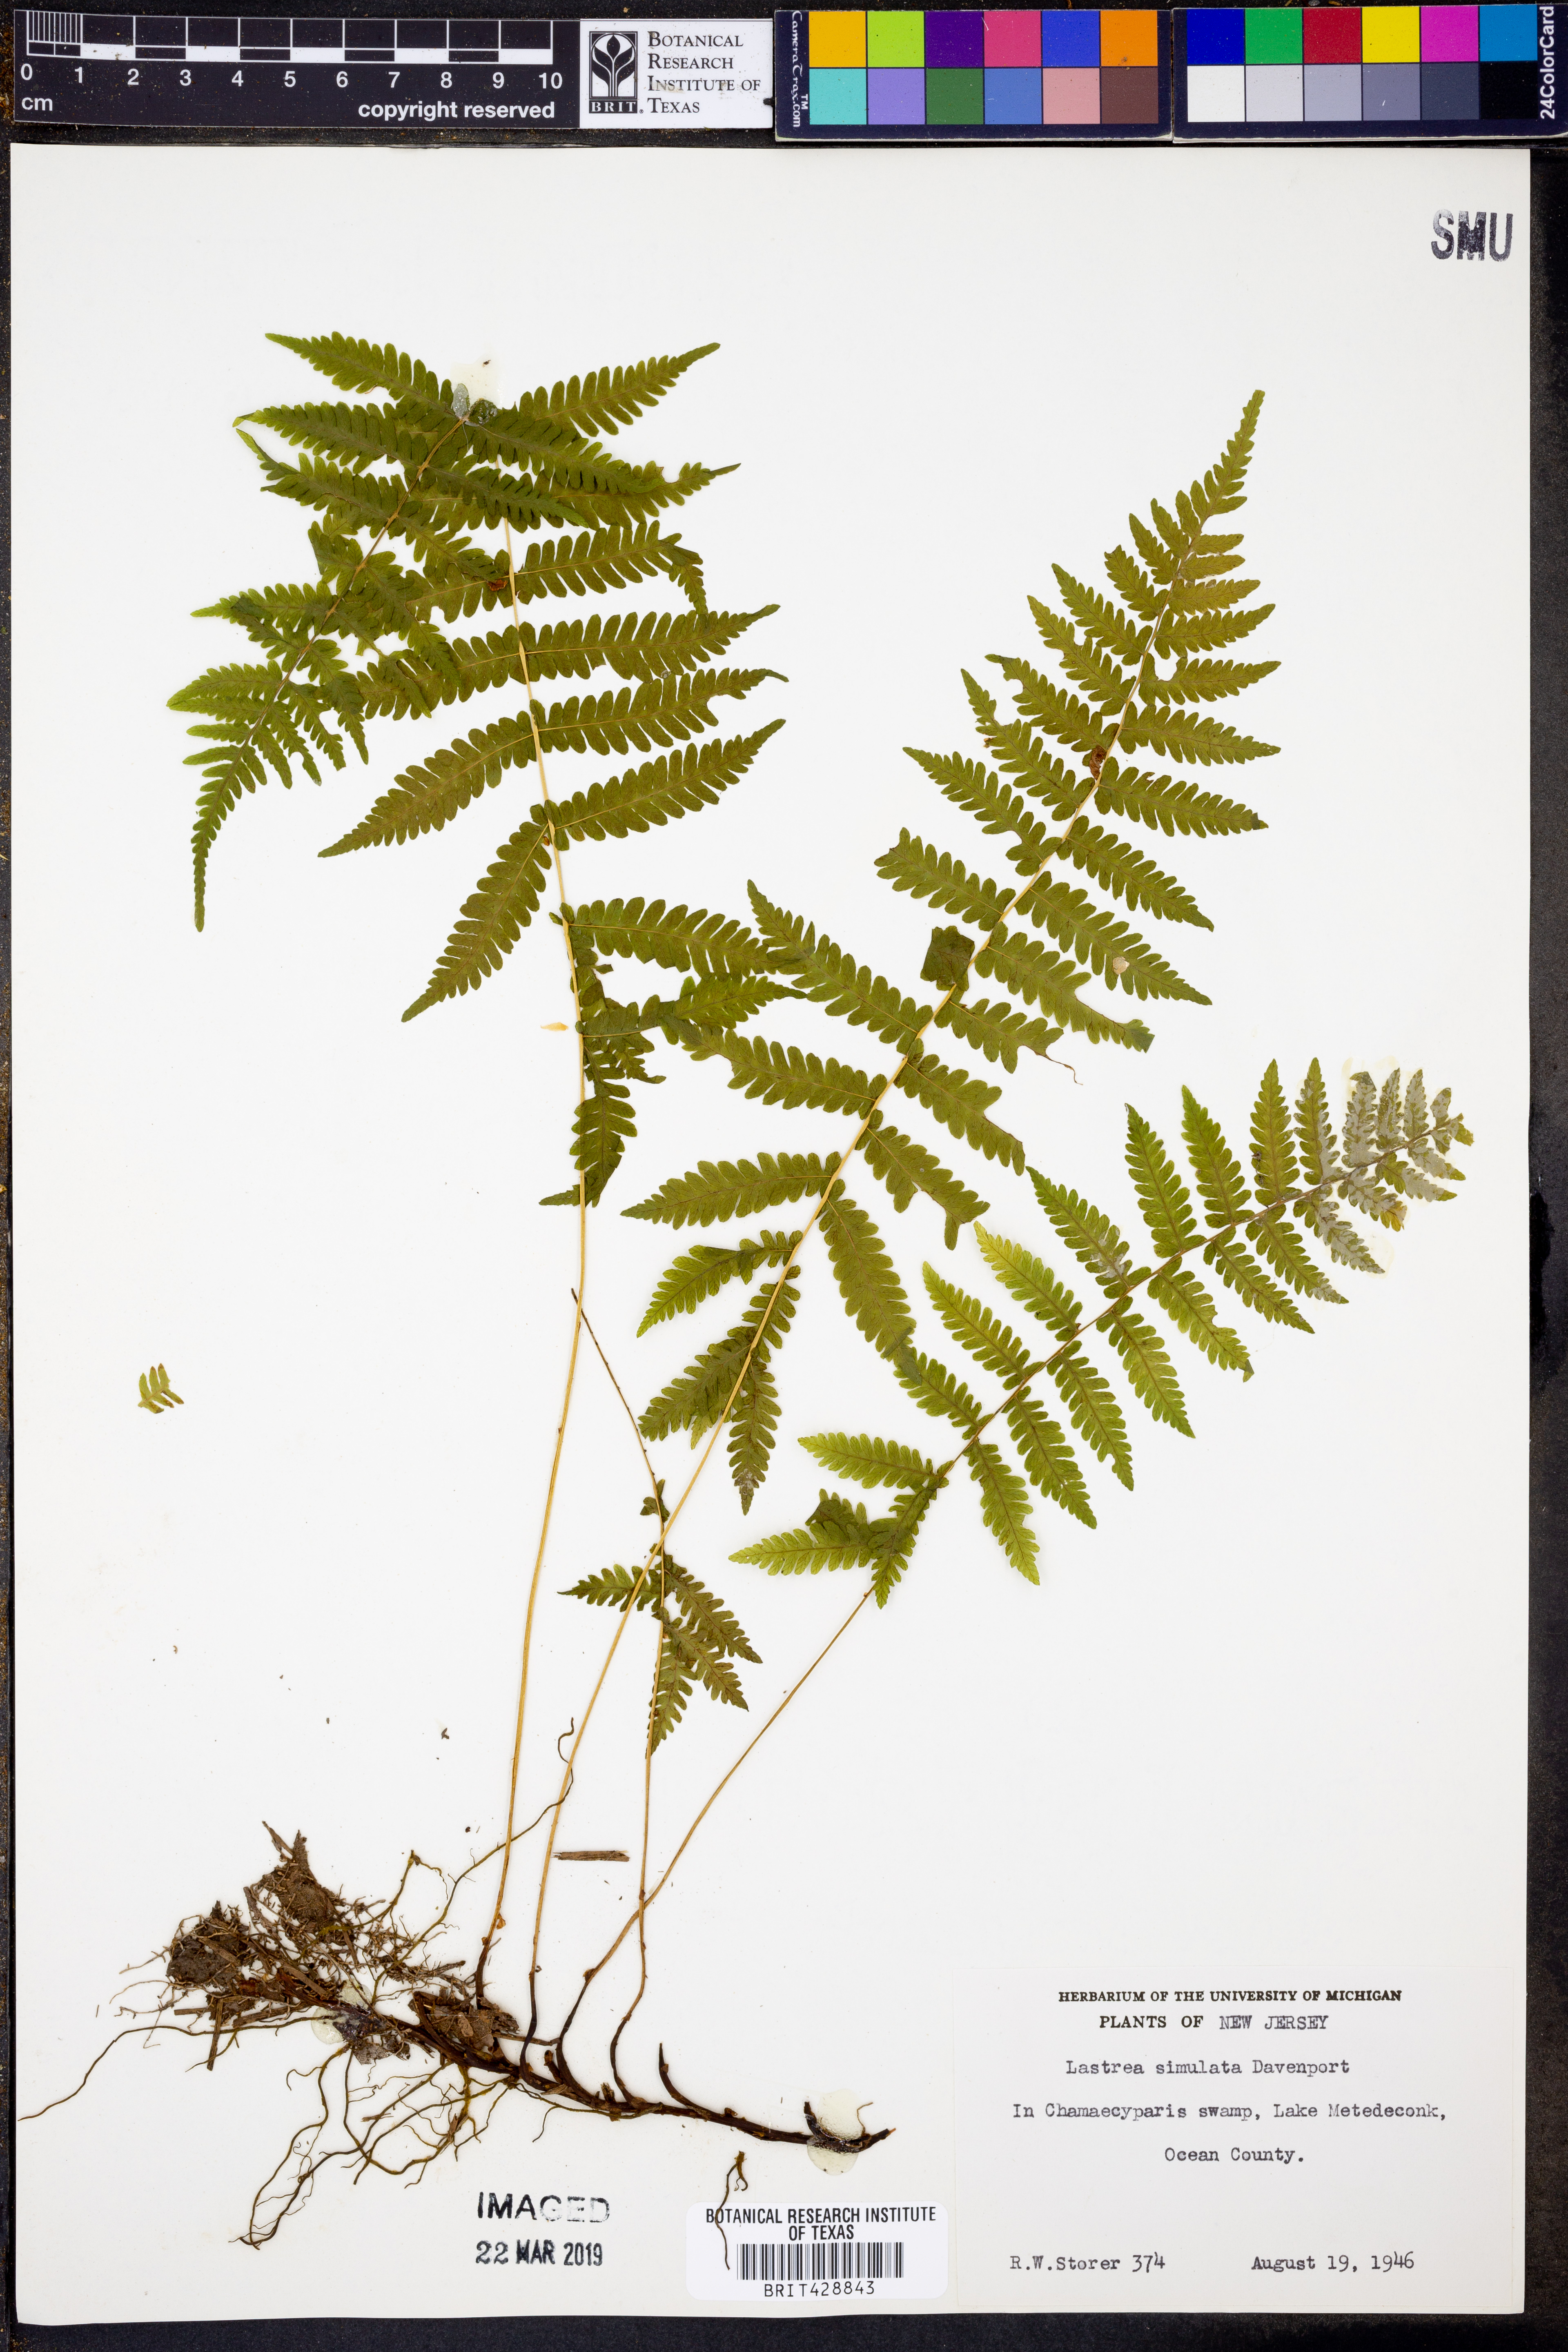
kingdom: Plantae
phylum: Tracheophyta
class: Polypodiopsida
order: Polypodiales
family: Thelypteridaceae
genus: Coryphopteris
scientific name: Coryphopteris simulata
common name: Bog fern
